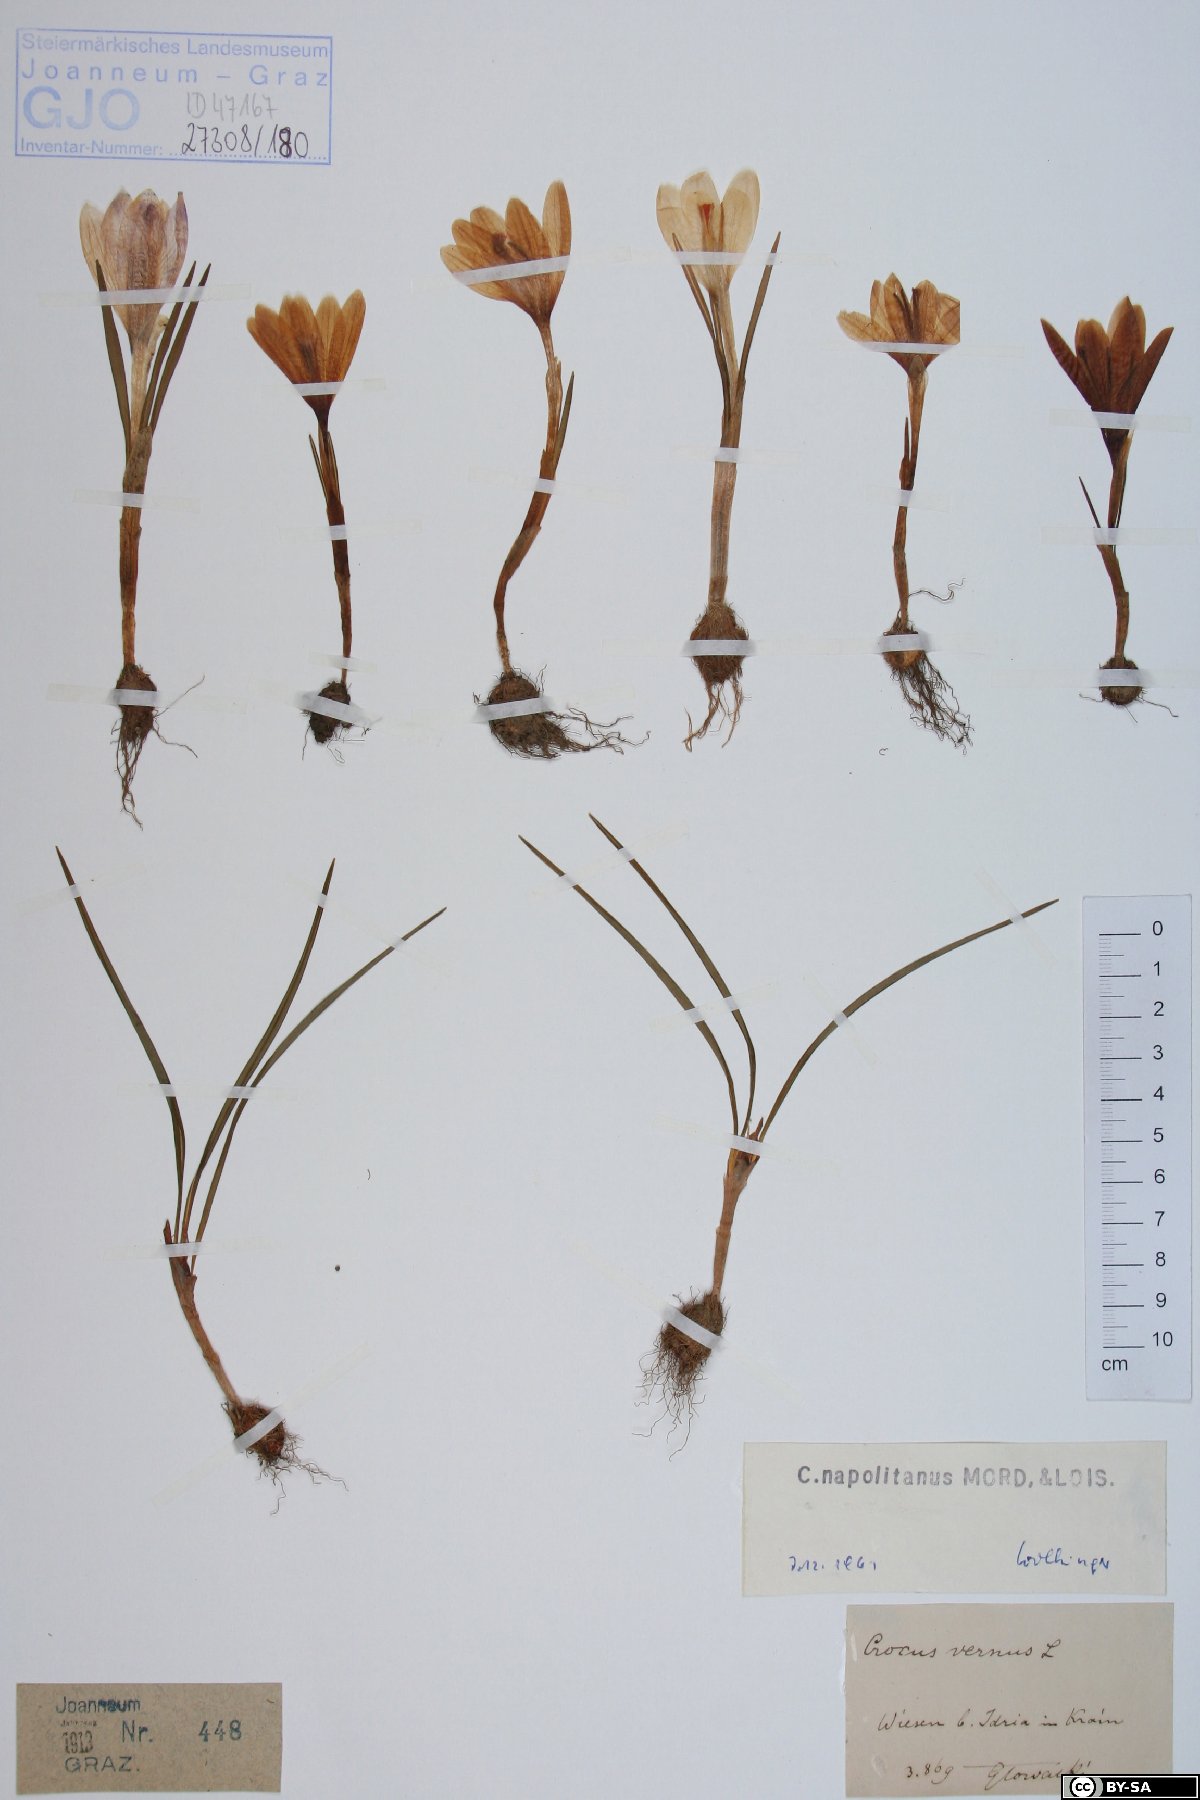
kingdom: Plantae
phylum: Tracheophyta
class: Liliopsida
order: Asparagales
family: Iridaceae
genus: Crocus
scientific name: Crocus vernus
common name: Spring crocus
